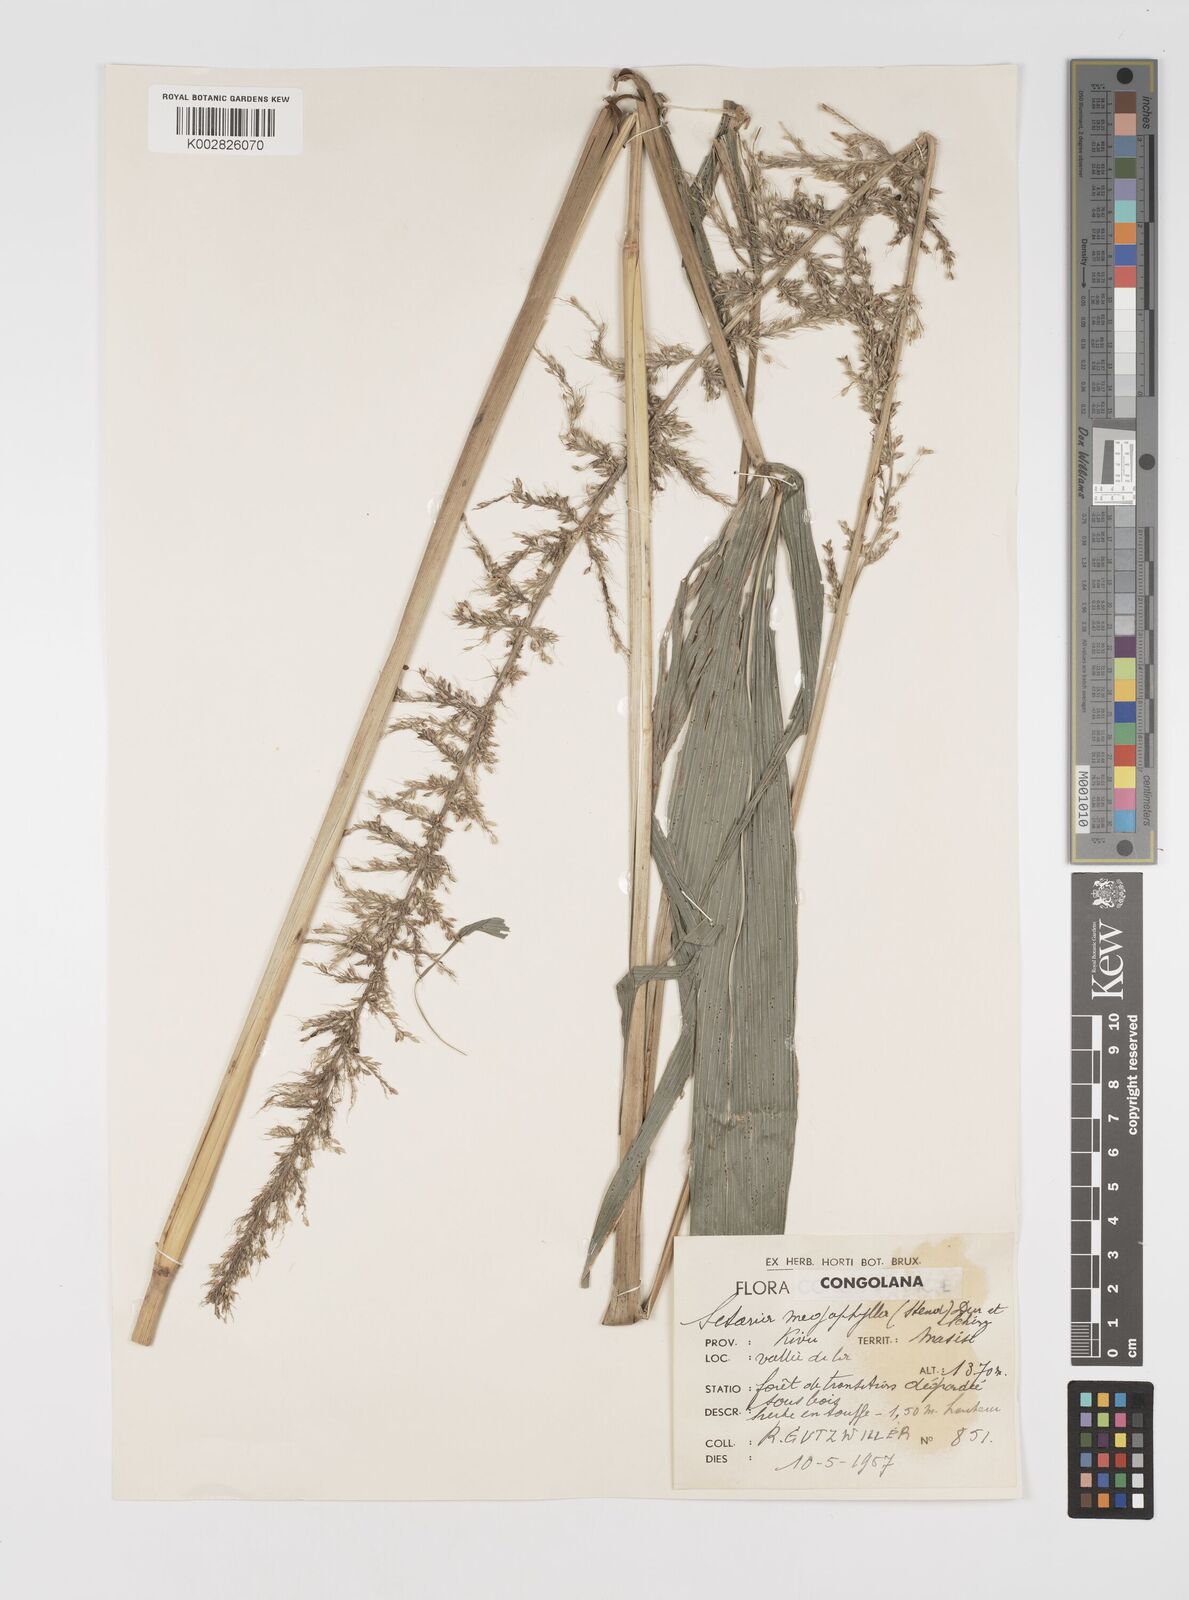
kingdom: Plantae
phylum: Tracheophyta
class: Liliopsida
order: Poales
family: Poaceae
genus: Setaria
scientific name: Setaria megaphylla
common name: Bigleaf bristlegrass
